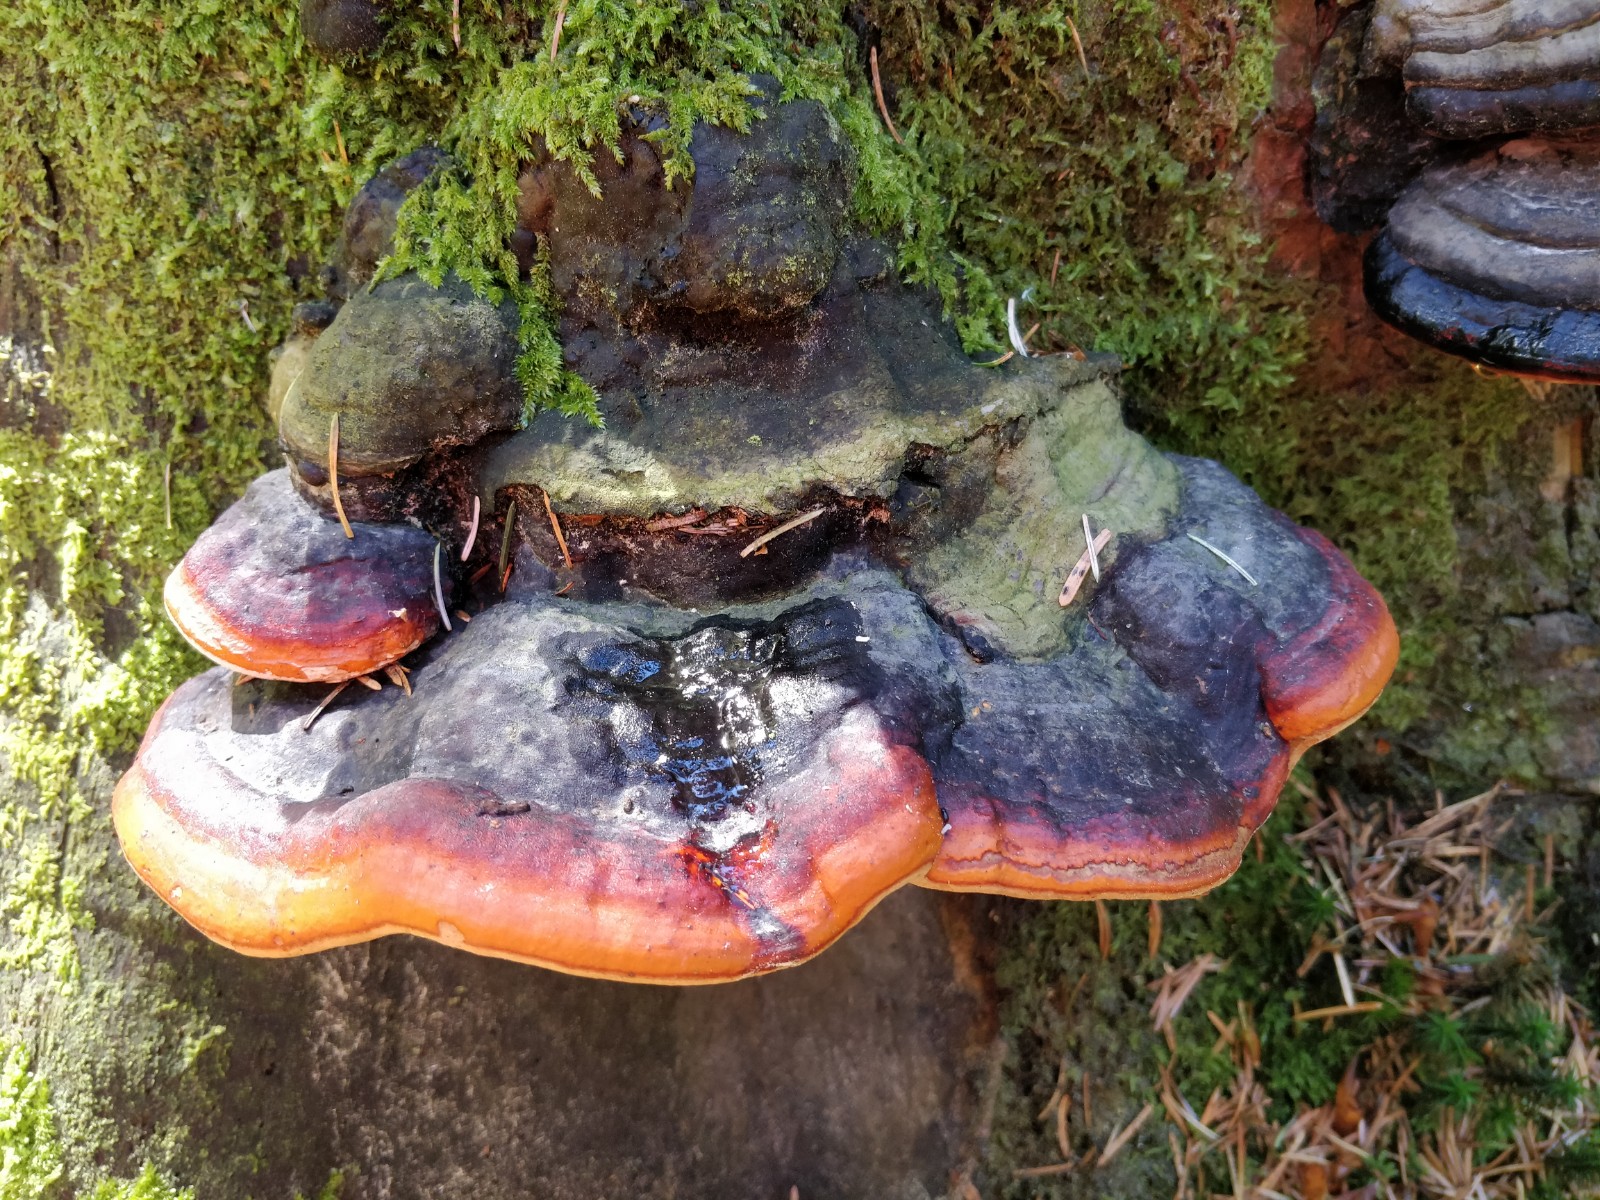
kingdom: Fungi
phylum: Basidiomycota
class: Agaricomycetes
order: Polyporales
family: Fomitopsidaceae
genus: Fomitopsis
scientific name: Fomitopsis pinicola
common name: randbæltet hovporesvamp
